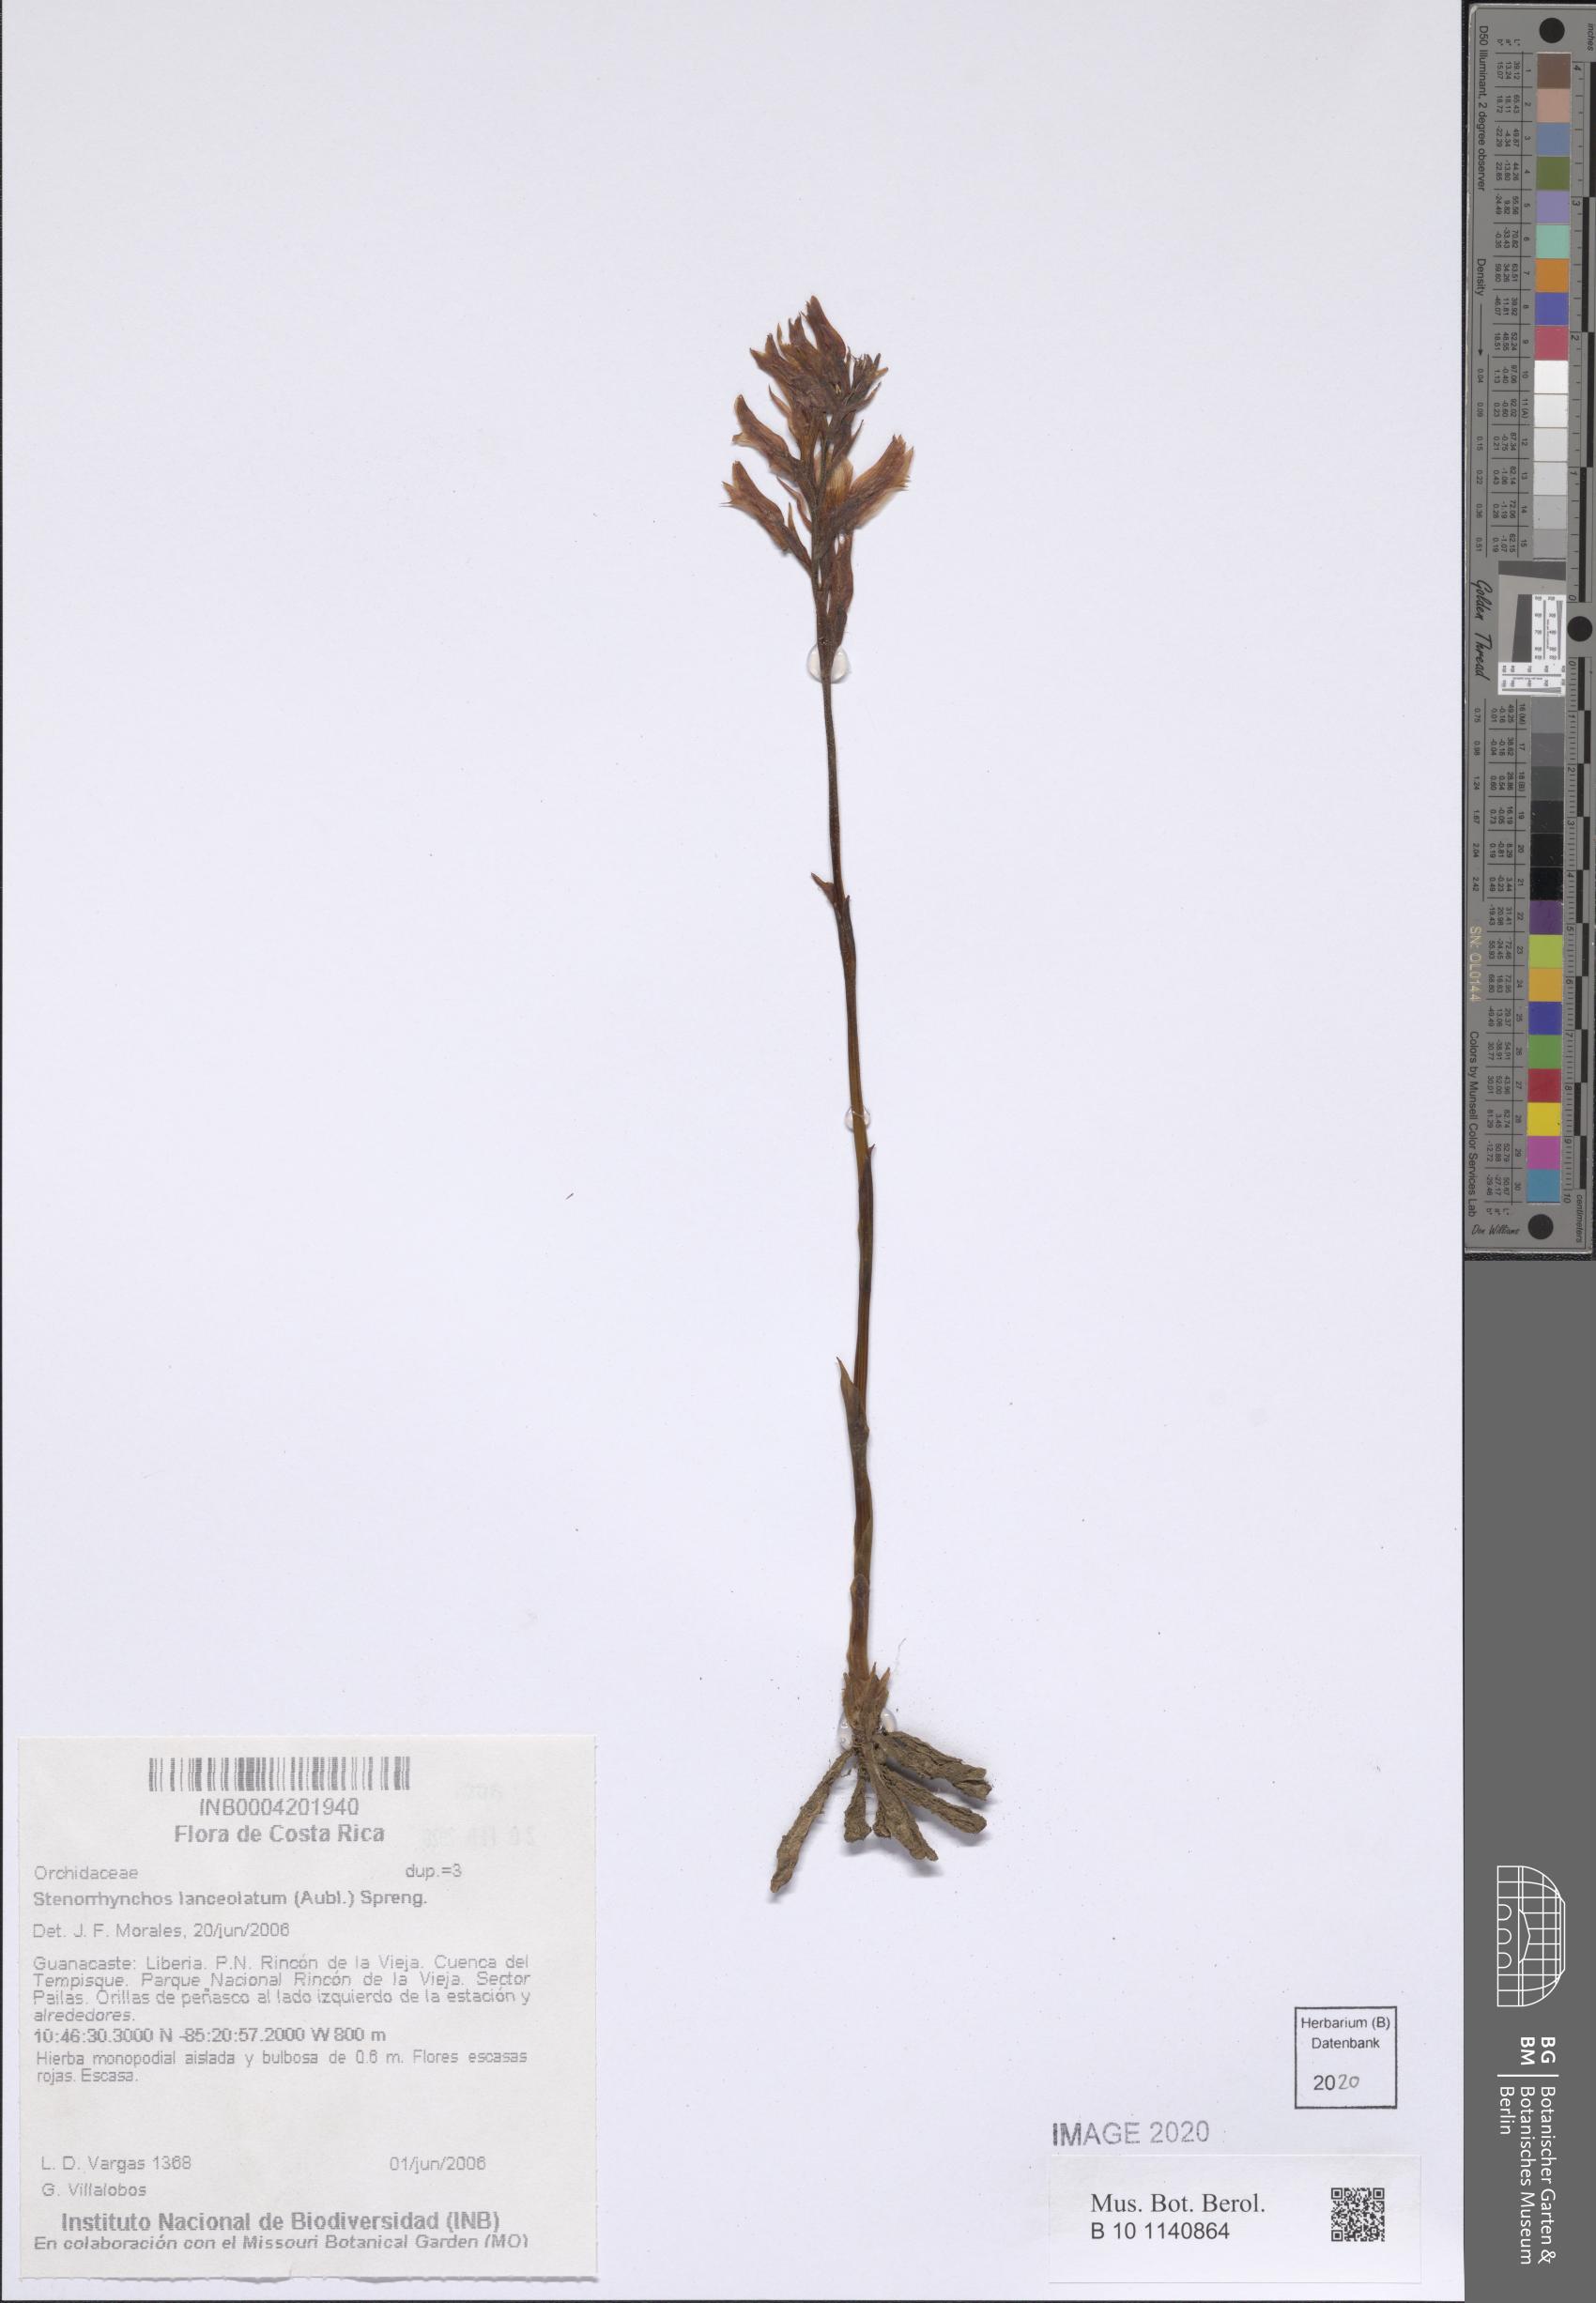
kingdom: Plantae
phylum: Tracheophyta
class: Liliopsida
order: Asparagales
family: Orchidaceae
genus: Sacoila
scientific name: Sacoila lanceolata
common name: Leafless beaked ladiestresses
